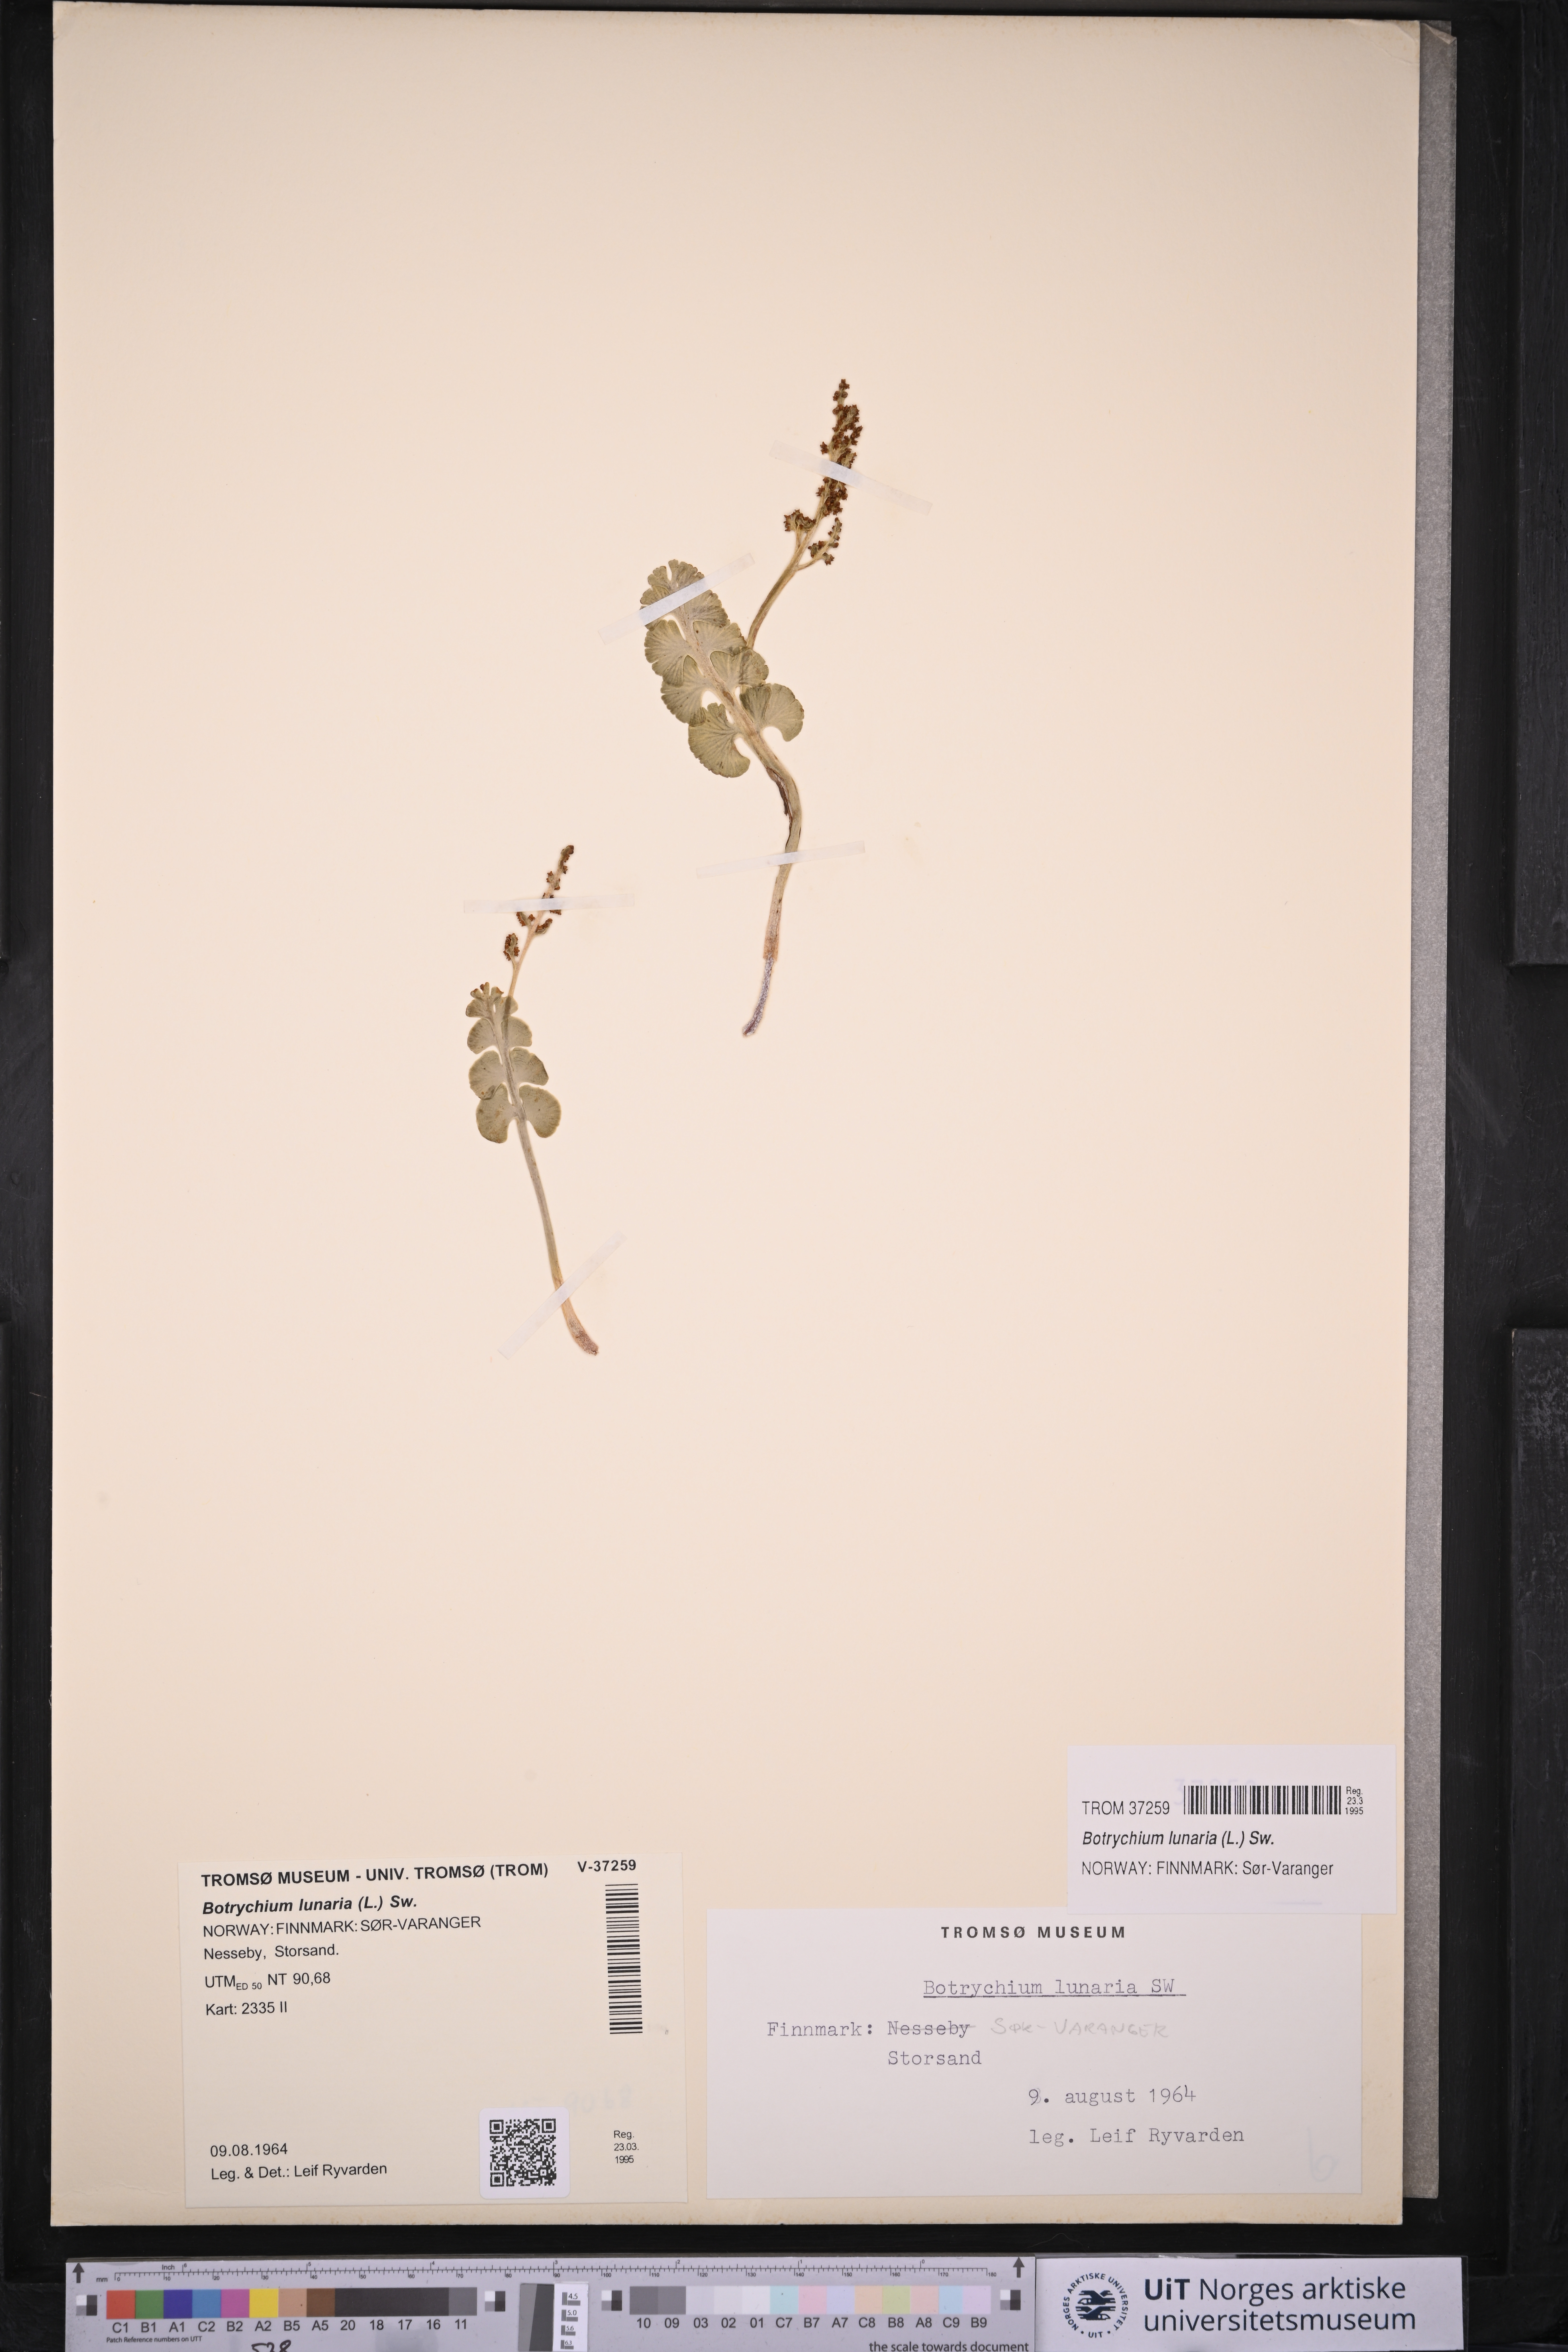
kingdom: Plantae
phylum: Tracheophyta
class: Polypodiopsida
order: Ophioglossales
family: Ophioglossaceae
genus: Botrychium
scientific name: Botrychium lunaria
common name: Moonwort
